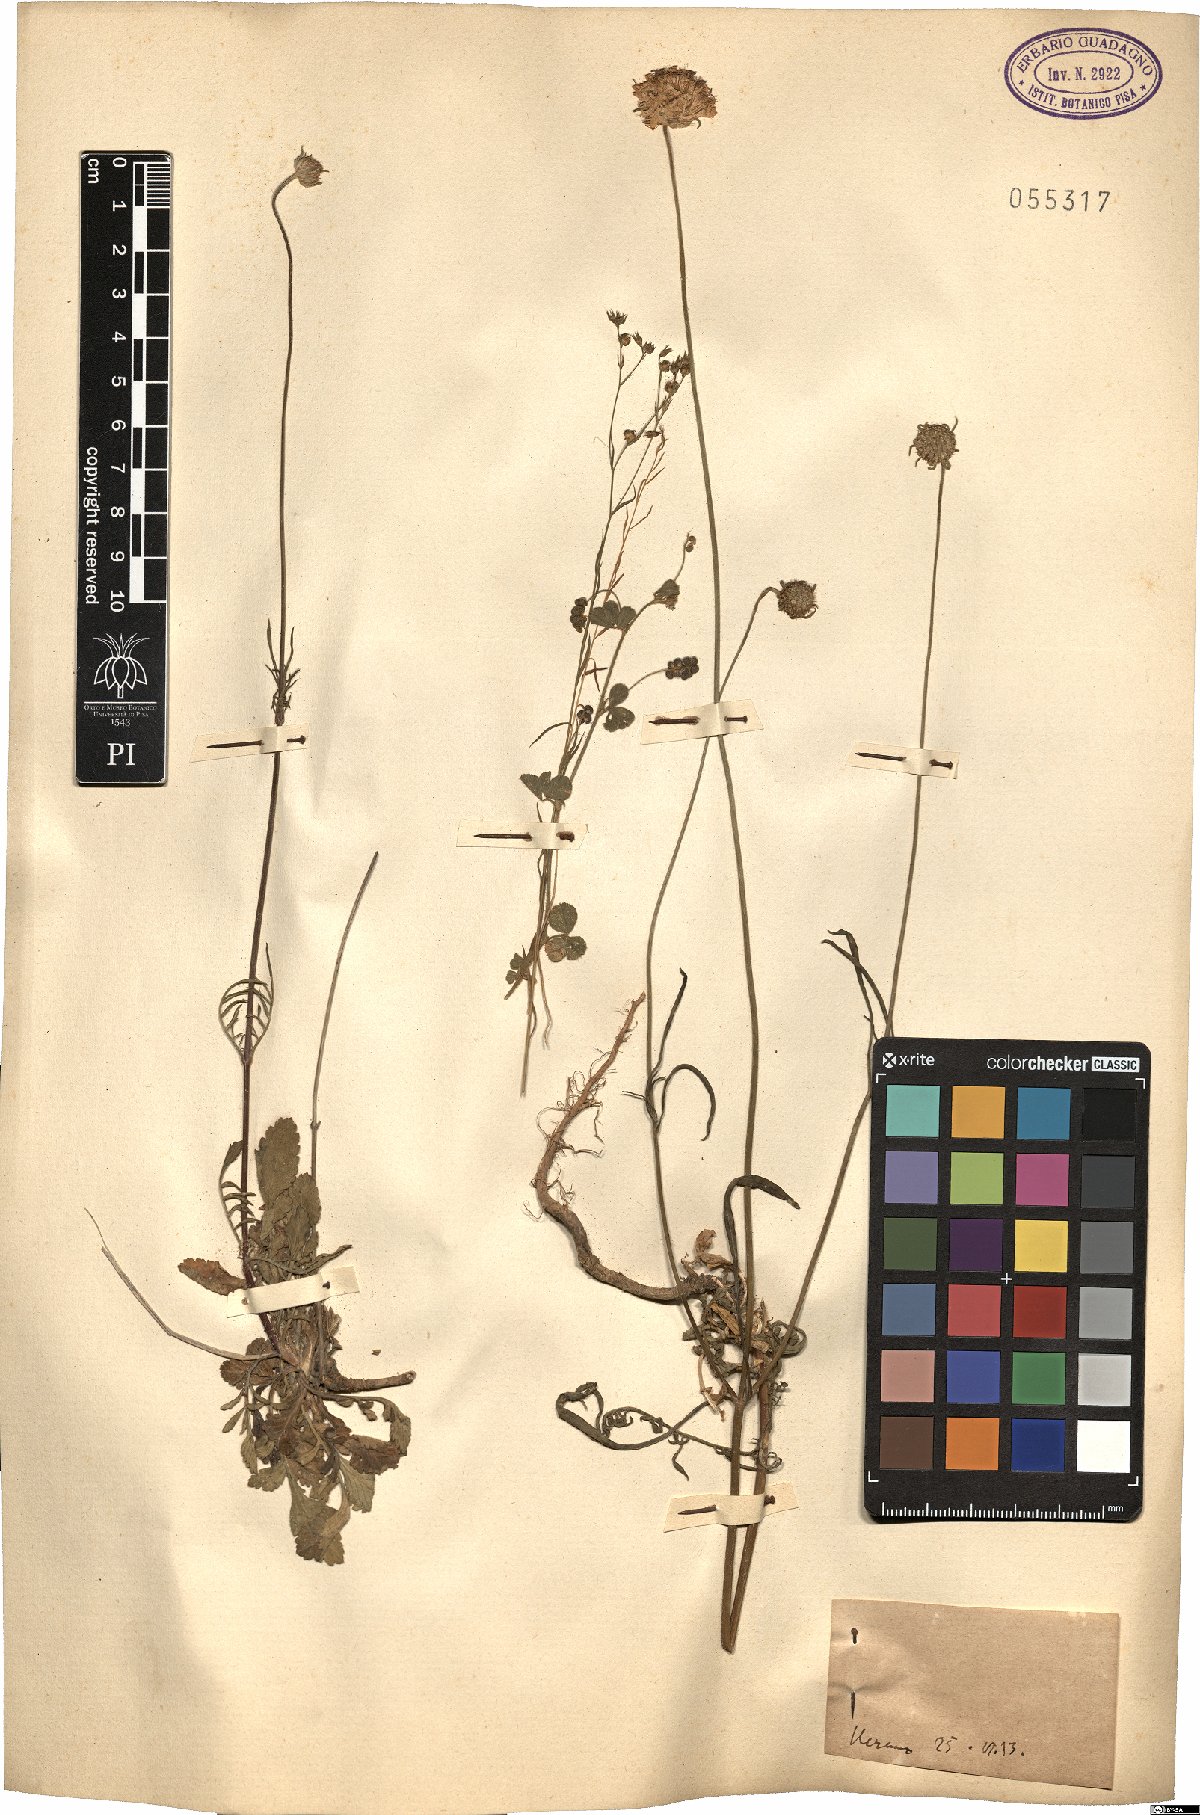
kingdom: Plantae
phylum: Tracheophyta
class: Magnoliopsida
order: Dipsacales
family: Caprifoliaceae
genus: Scabiosa
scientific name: Scabiosa
